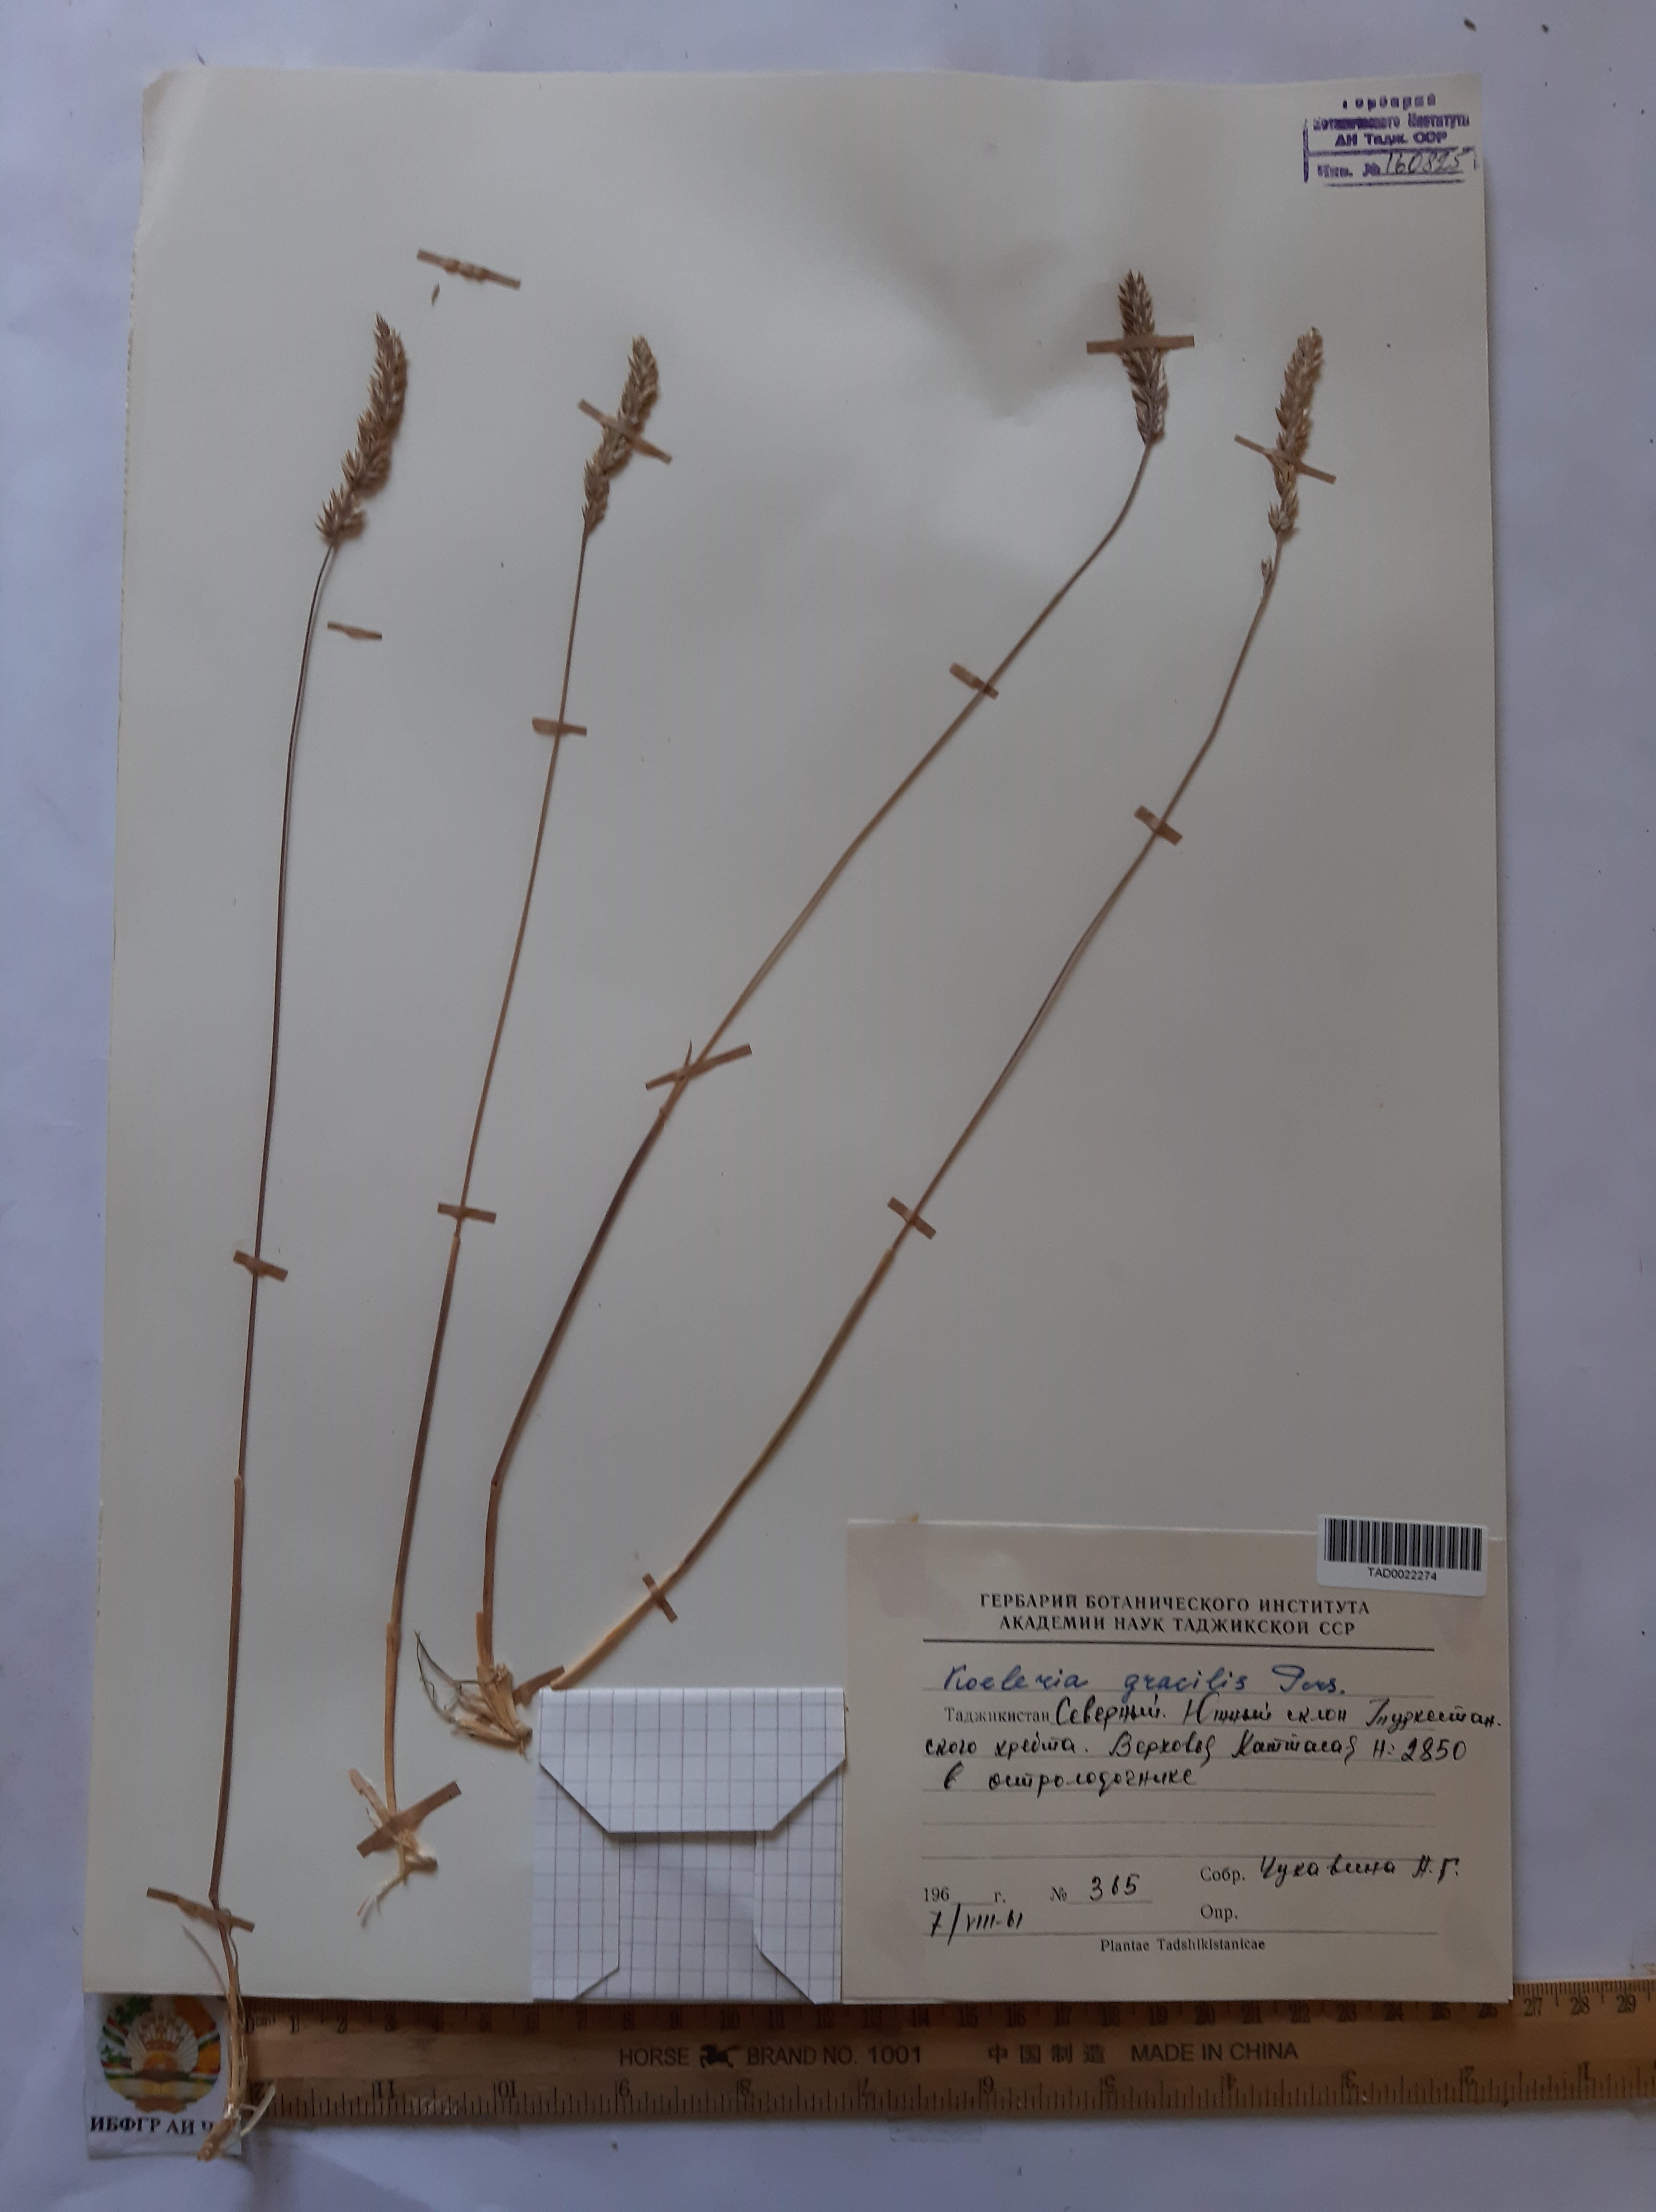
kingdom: Plantae
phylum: Tracheophyta
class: Liliopsida
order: Poales
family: Poaceae
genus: Koeleria
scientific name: Koeleria macrantha
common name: Crested hair-grass
